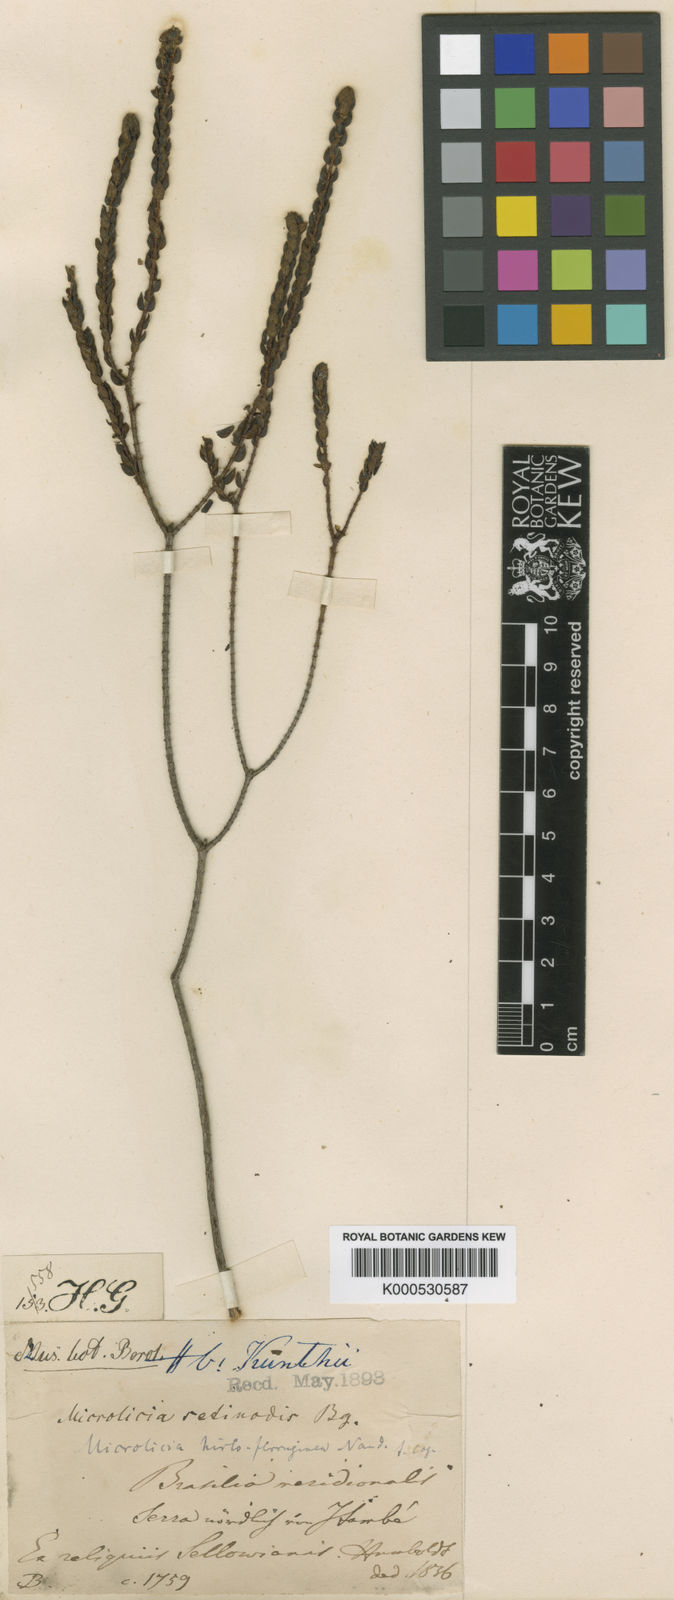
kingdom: Plantae
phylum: Tracheophyta
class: Magnoliopsida
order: Myrtales
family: Melastomataceae
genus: Microlicia
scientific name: Microlicia hirto-ferruginea
